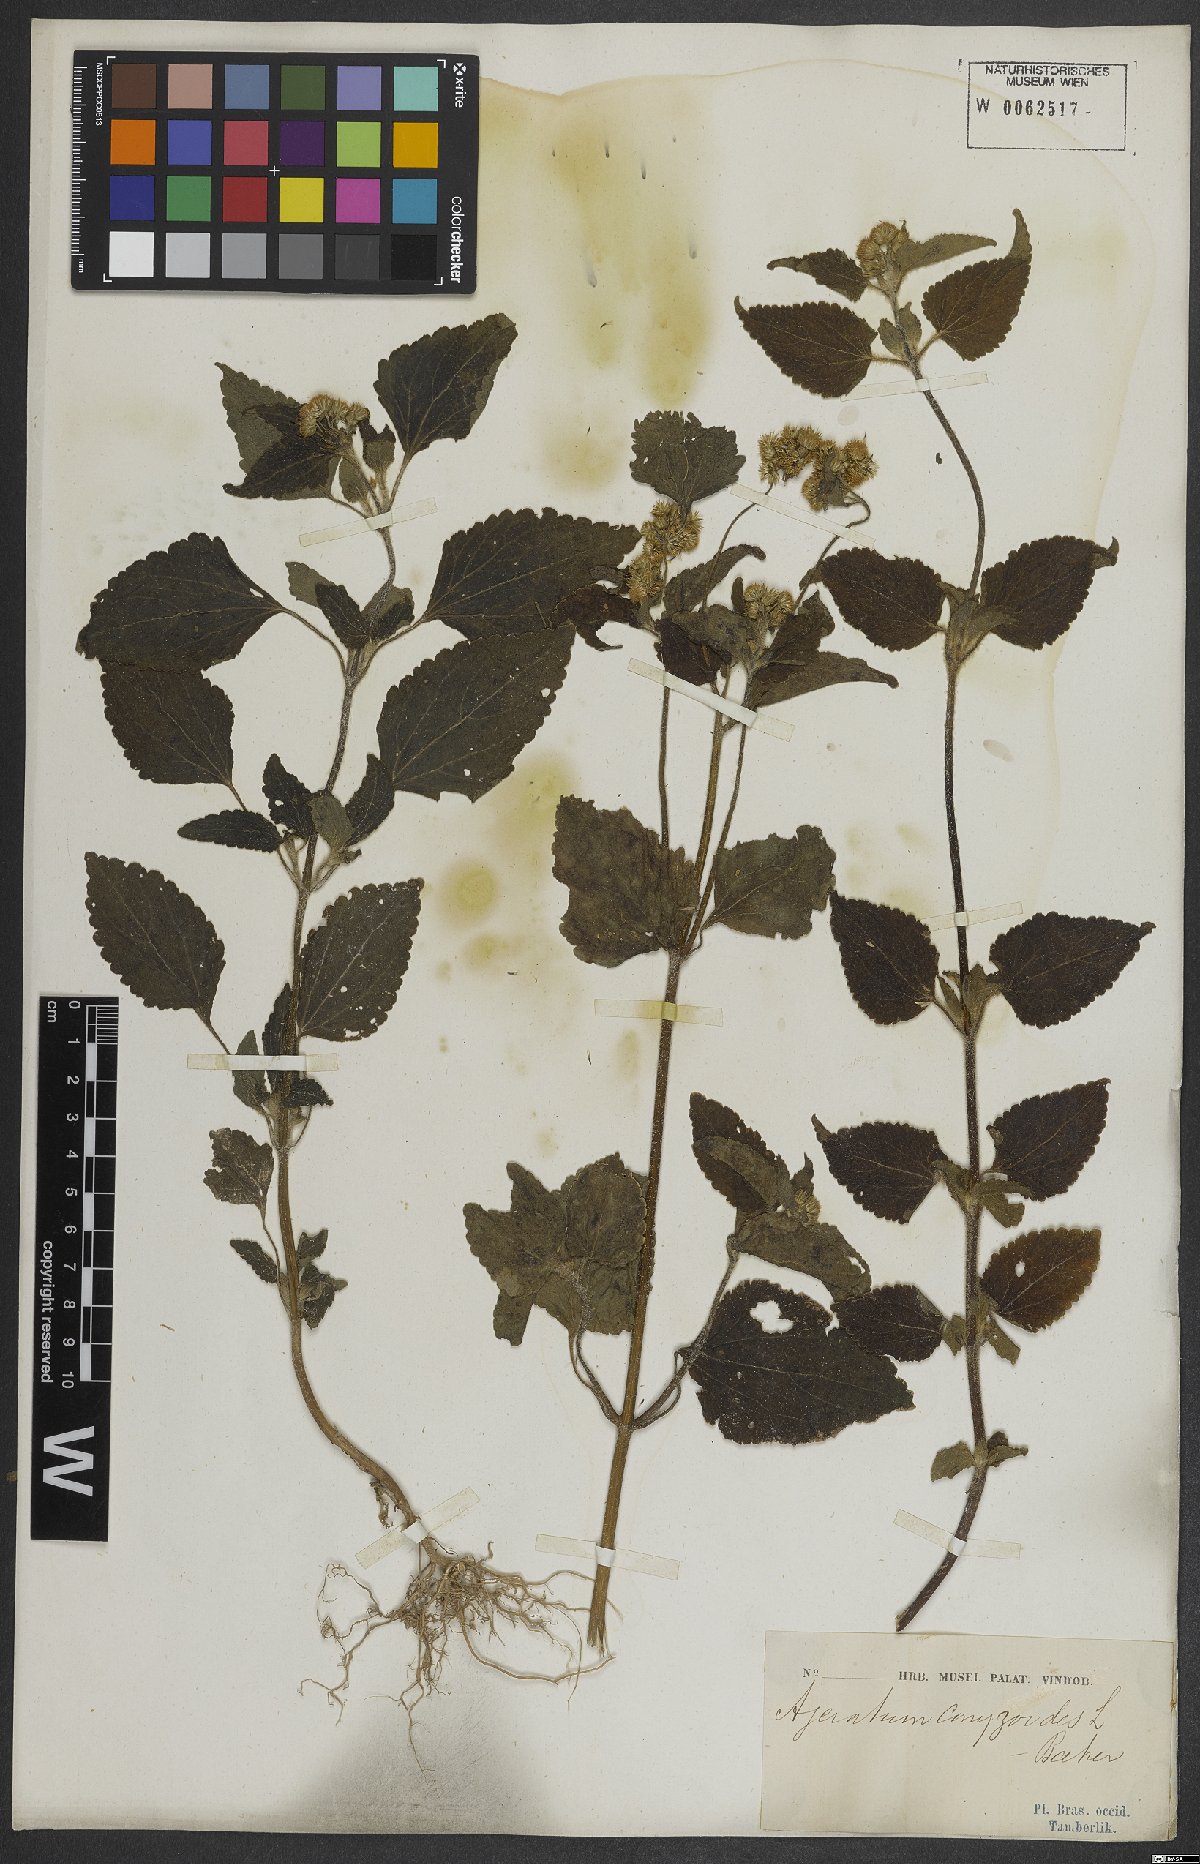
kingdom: Plantae
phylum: Tracheophyta
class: Magnoliopsida
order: Asterales
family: Asteraceae
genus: Ageratum
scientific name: Ageratum conyzoides
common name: Tropical whiteweed
